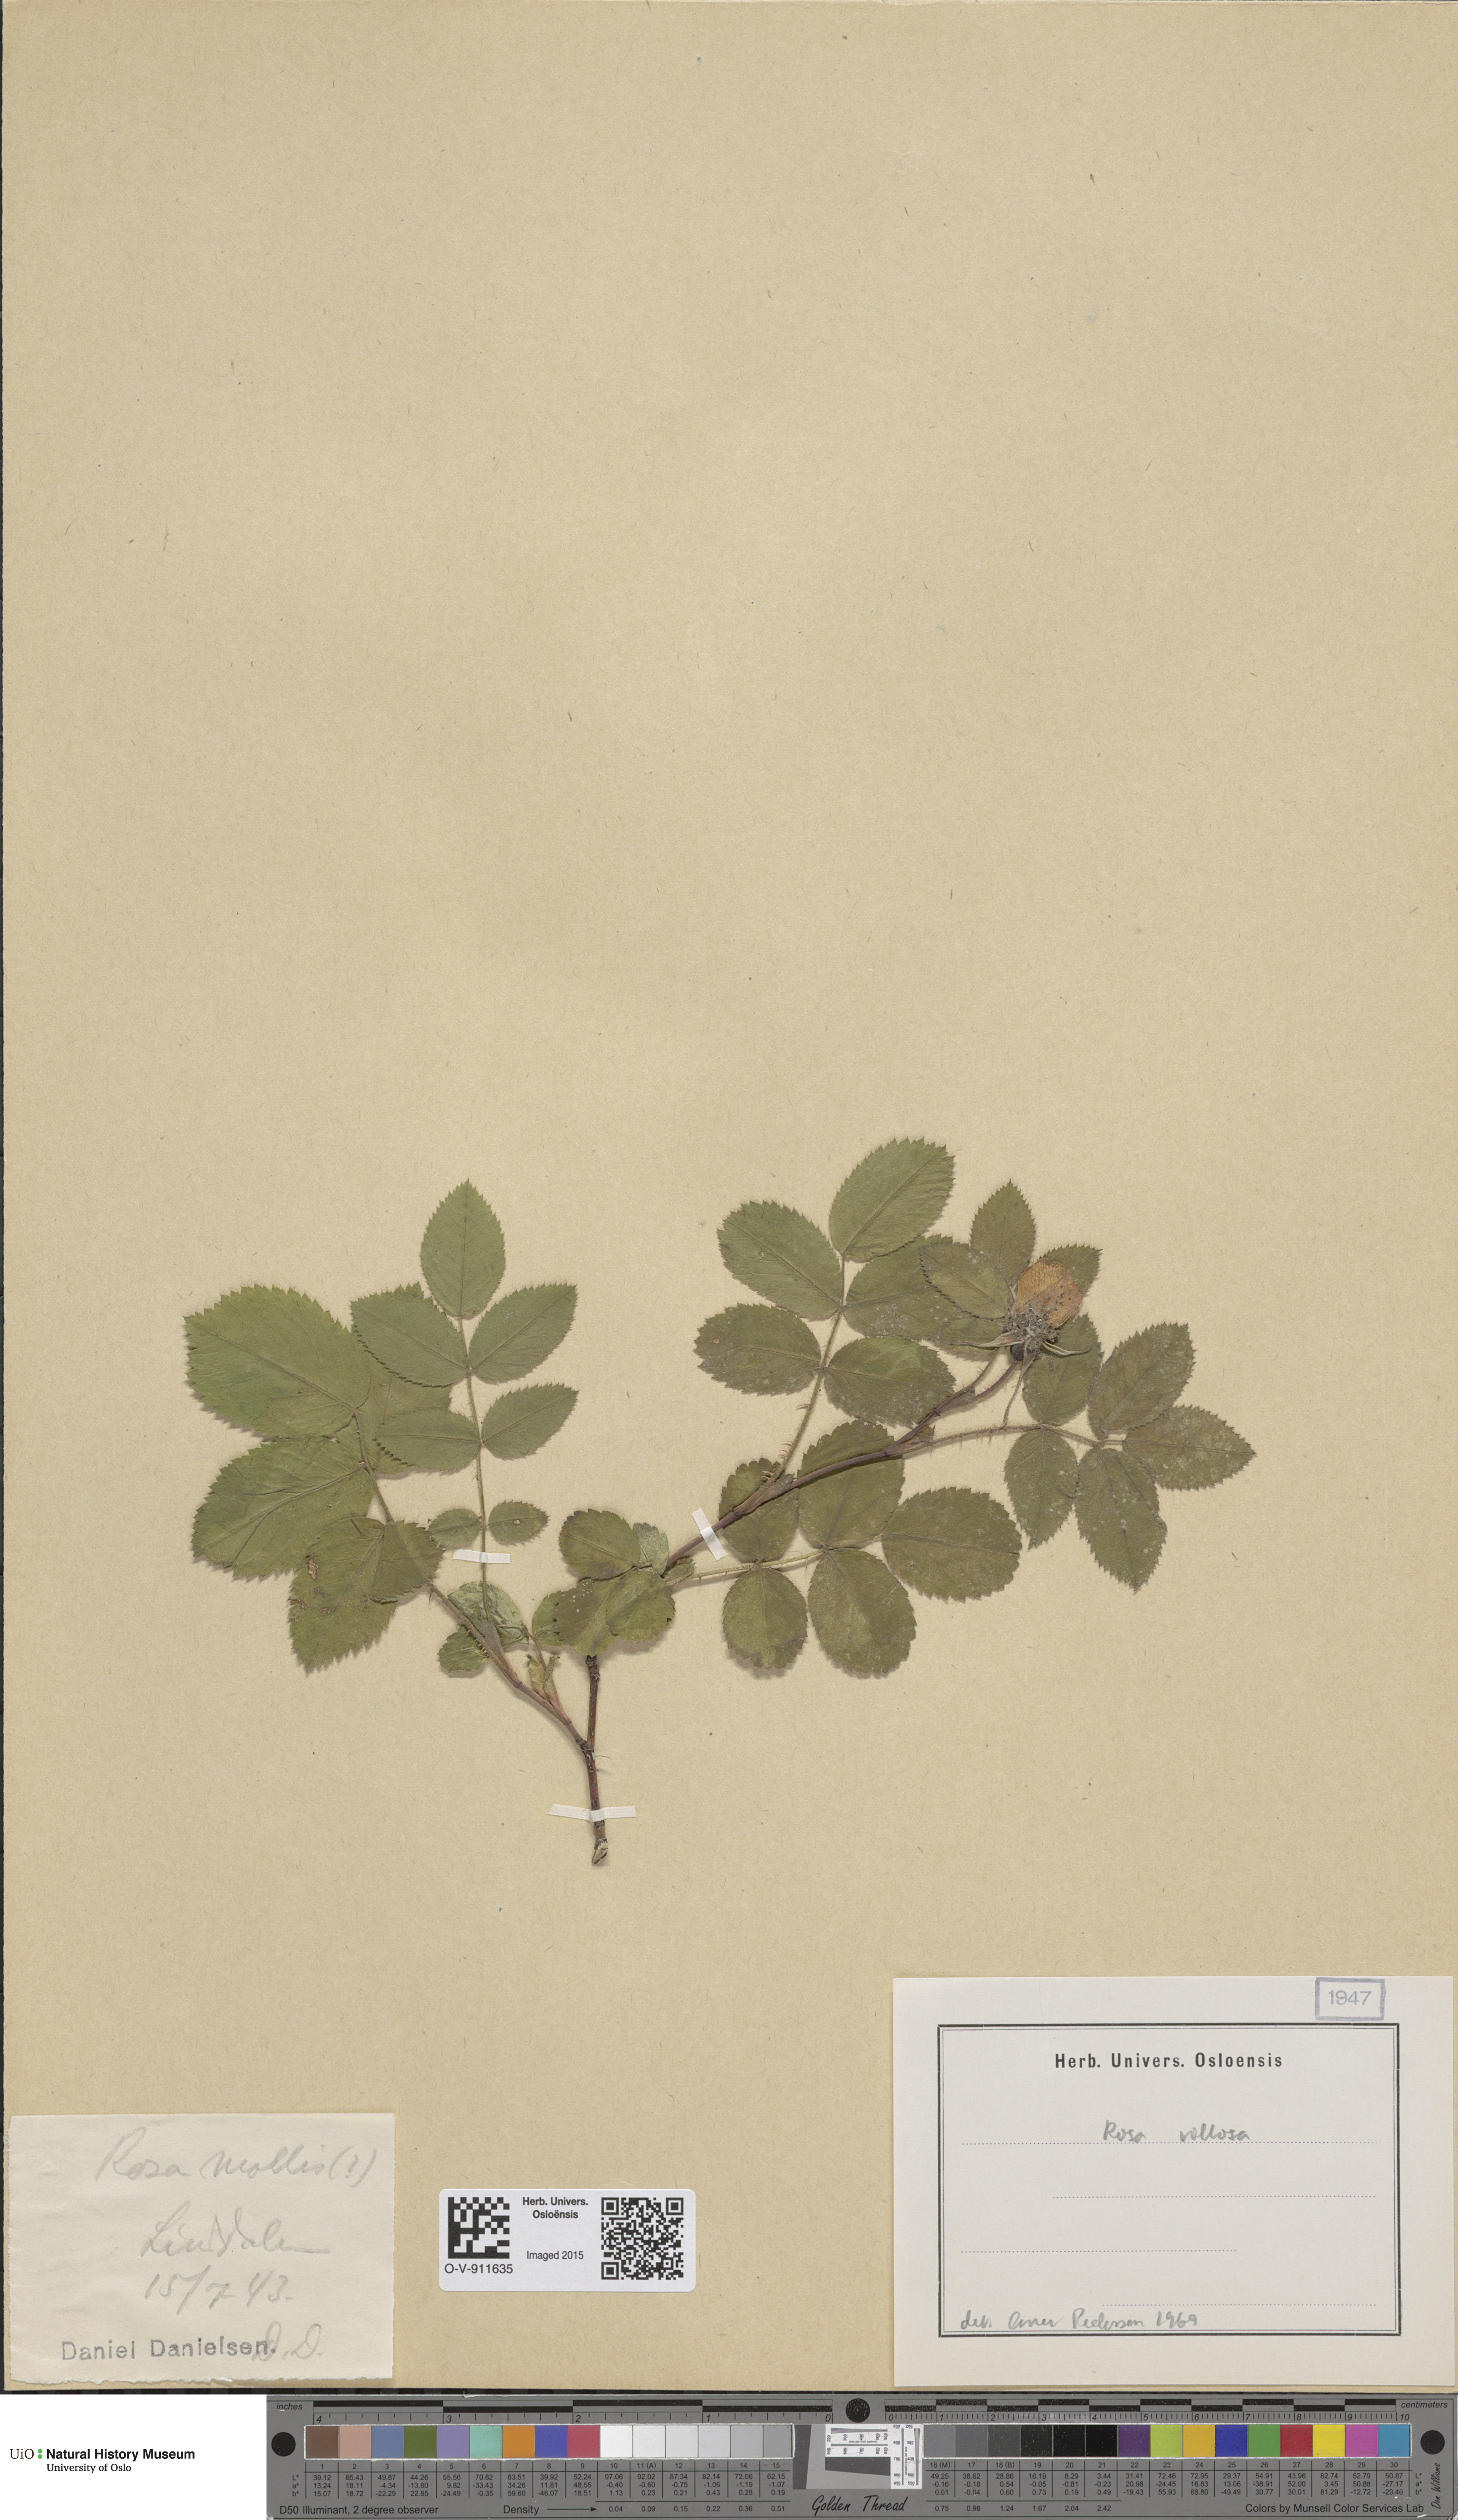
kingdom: Plantae
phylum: Tracheophyta
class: Magnoliopsida
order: Rosales
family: Rosaceae
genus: Rosa
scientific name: Rosa villosa
